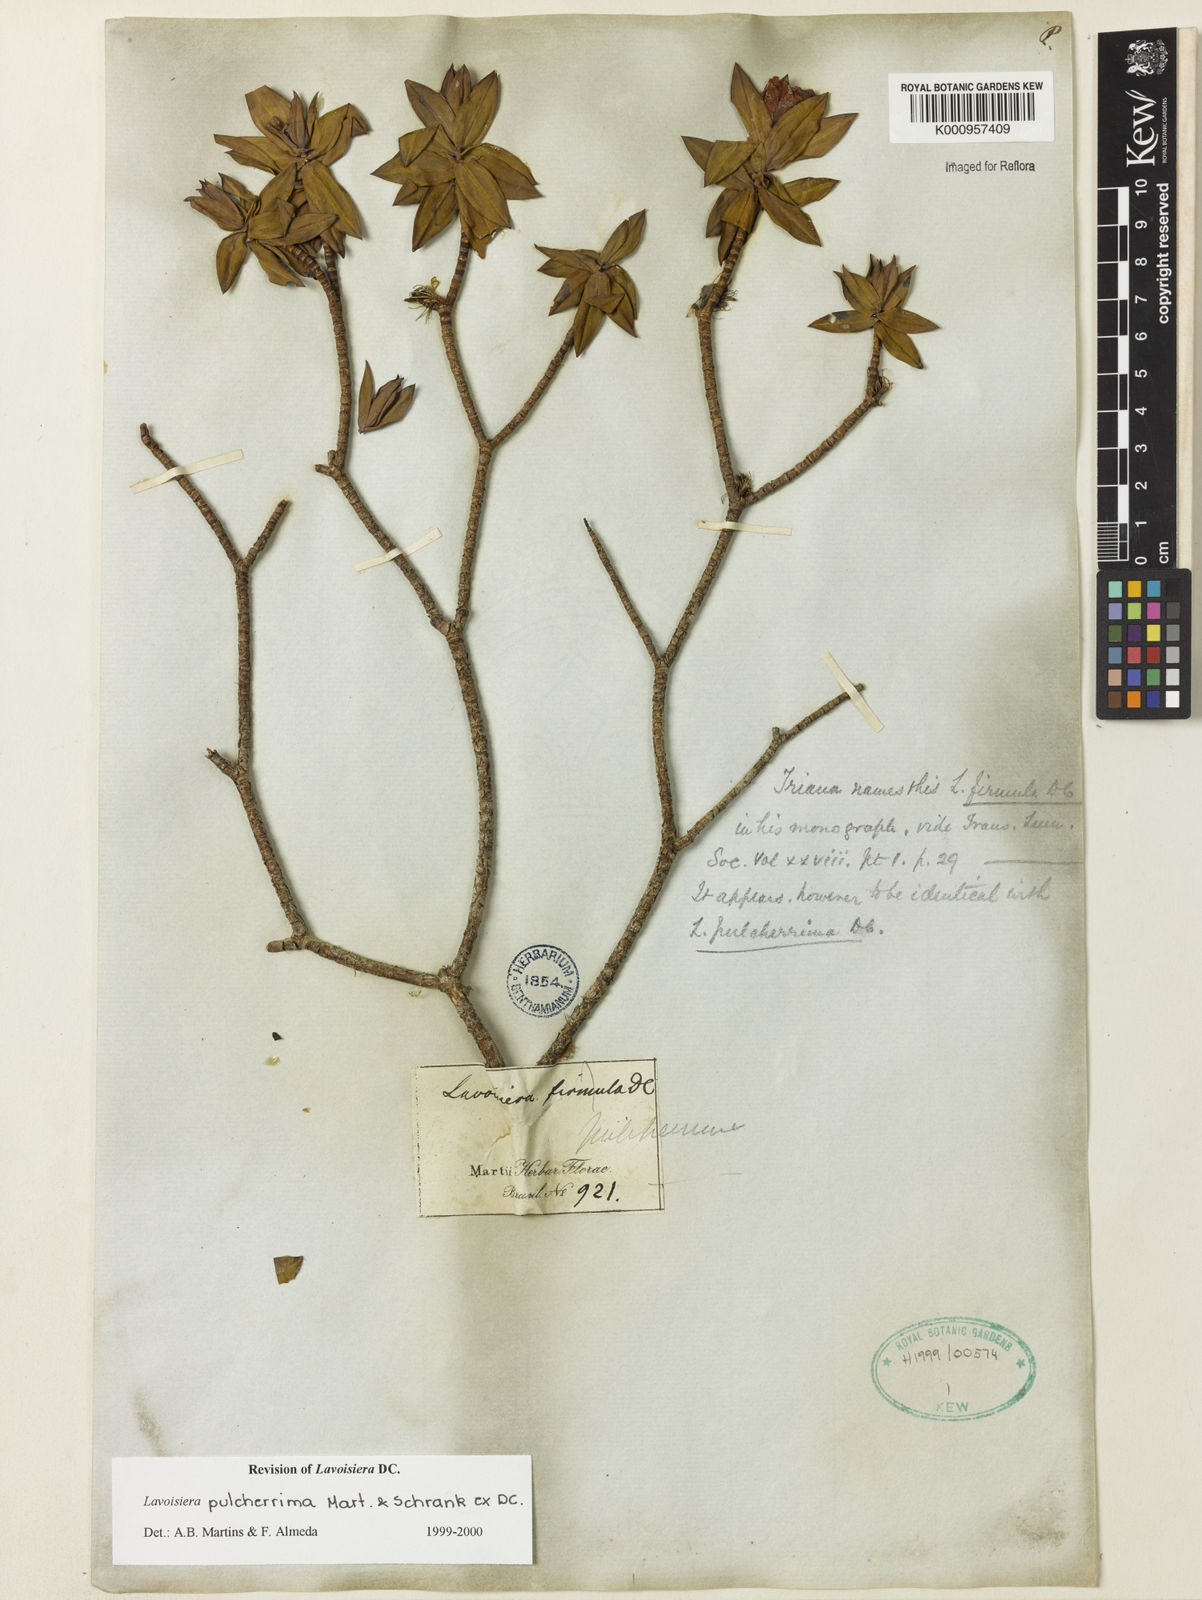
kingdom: Plantae
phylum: Tracheophyta
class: Magnoliopsida
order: Myrtales
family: Melastomataceae
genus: Microlicia
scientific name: Microlicia pulcherrima
